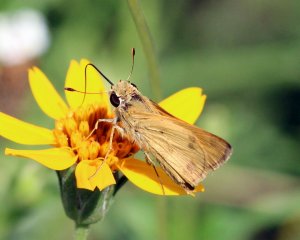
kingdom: Animalia
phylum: Arthropoda
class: Insecta
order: Lepidoptera
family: Hesperiidae
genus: Polites
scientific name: Polites vibex
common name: Whirlabout
